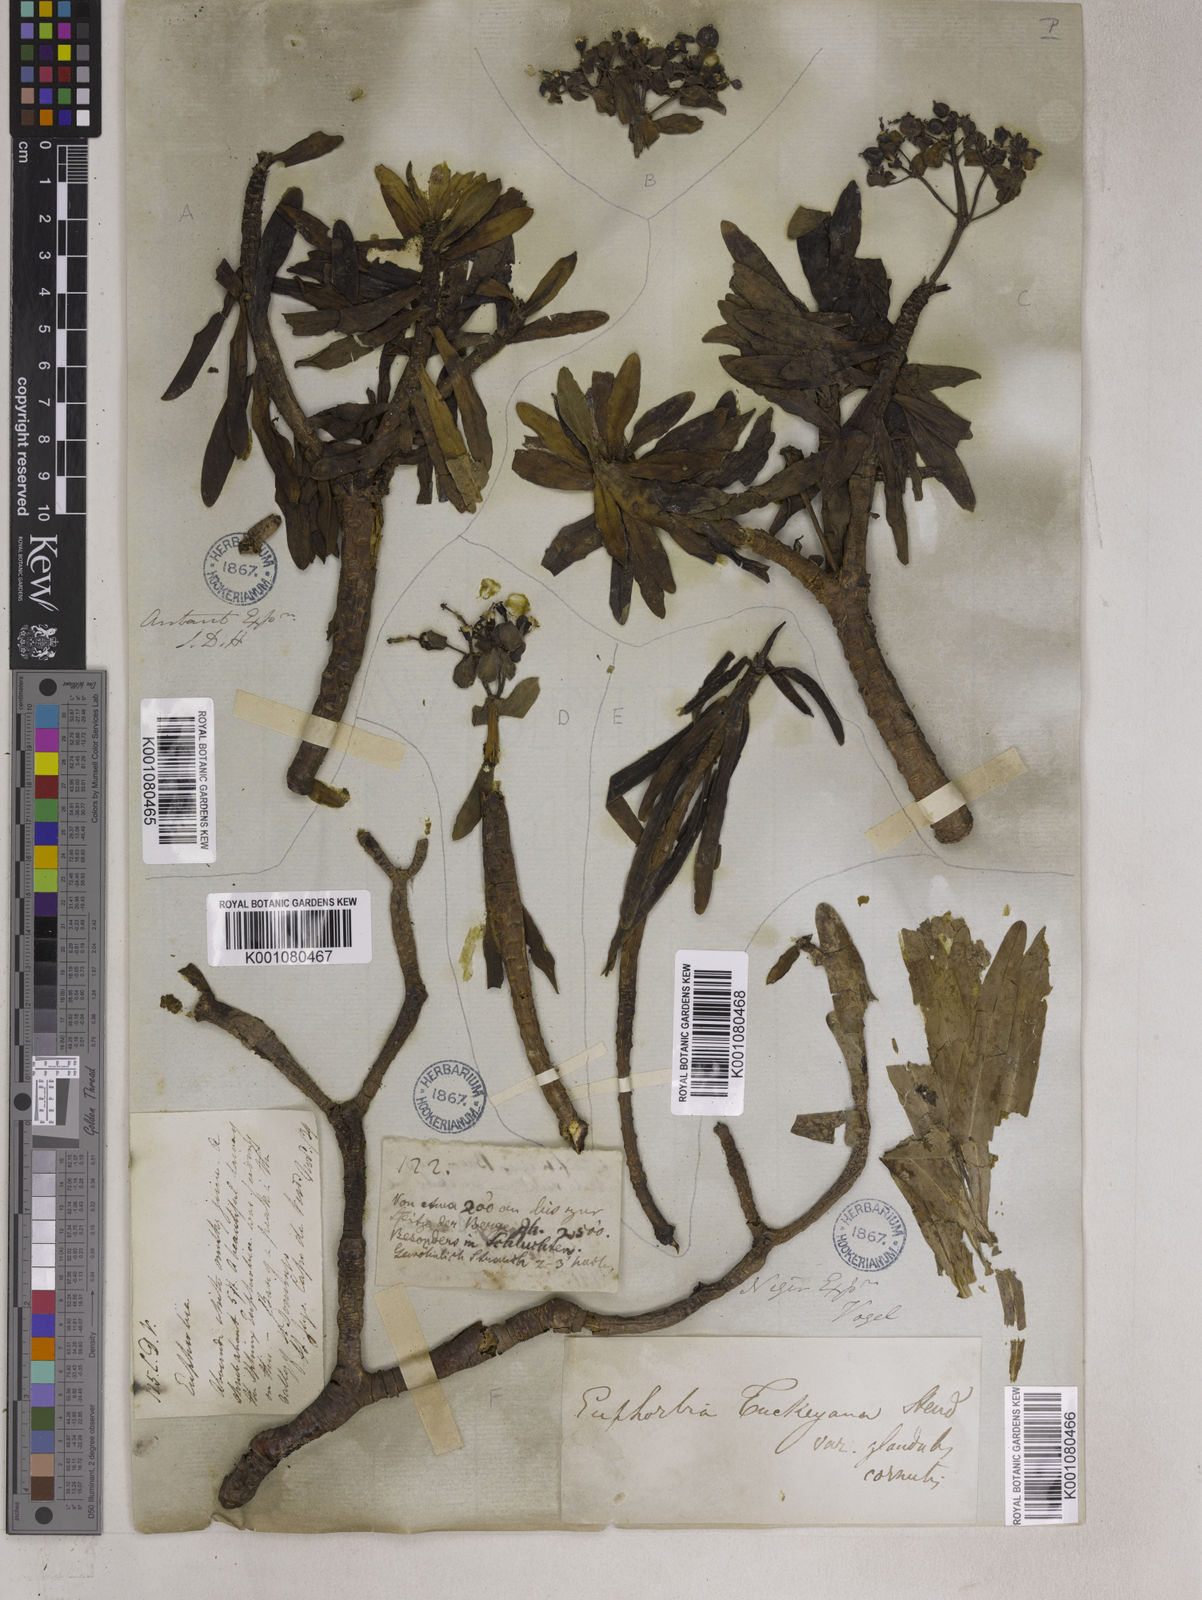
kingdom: Plantae
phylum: Tracheophyta
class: Magnoliopsida
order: Malpighiales
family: Euphorbiaceae
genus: Euphorbia
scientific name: Euphorbia
